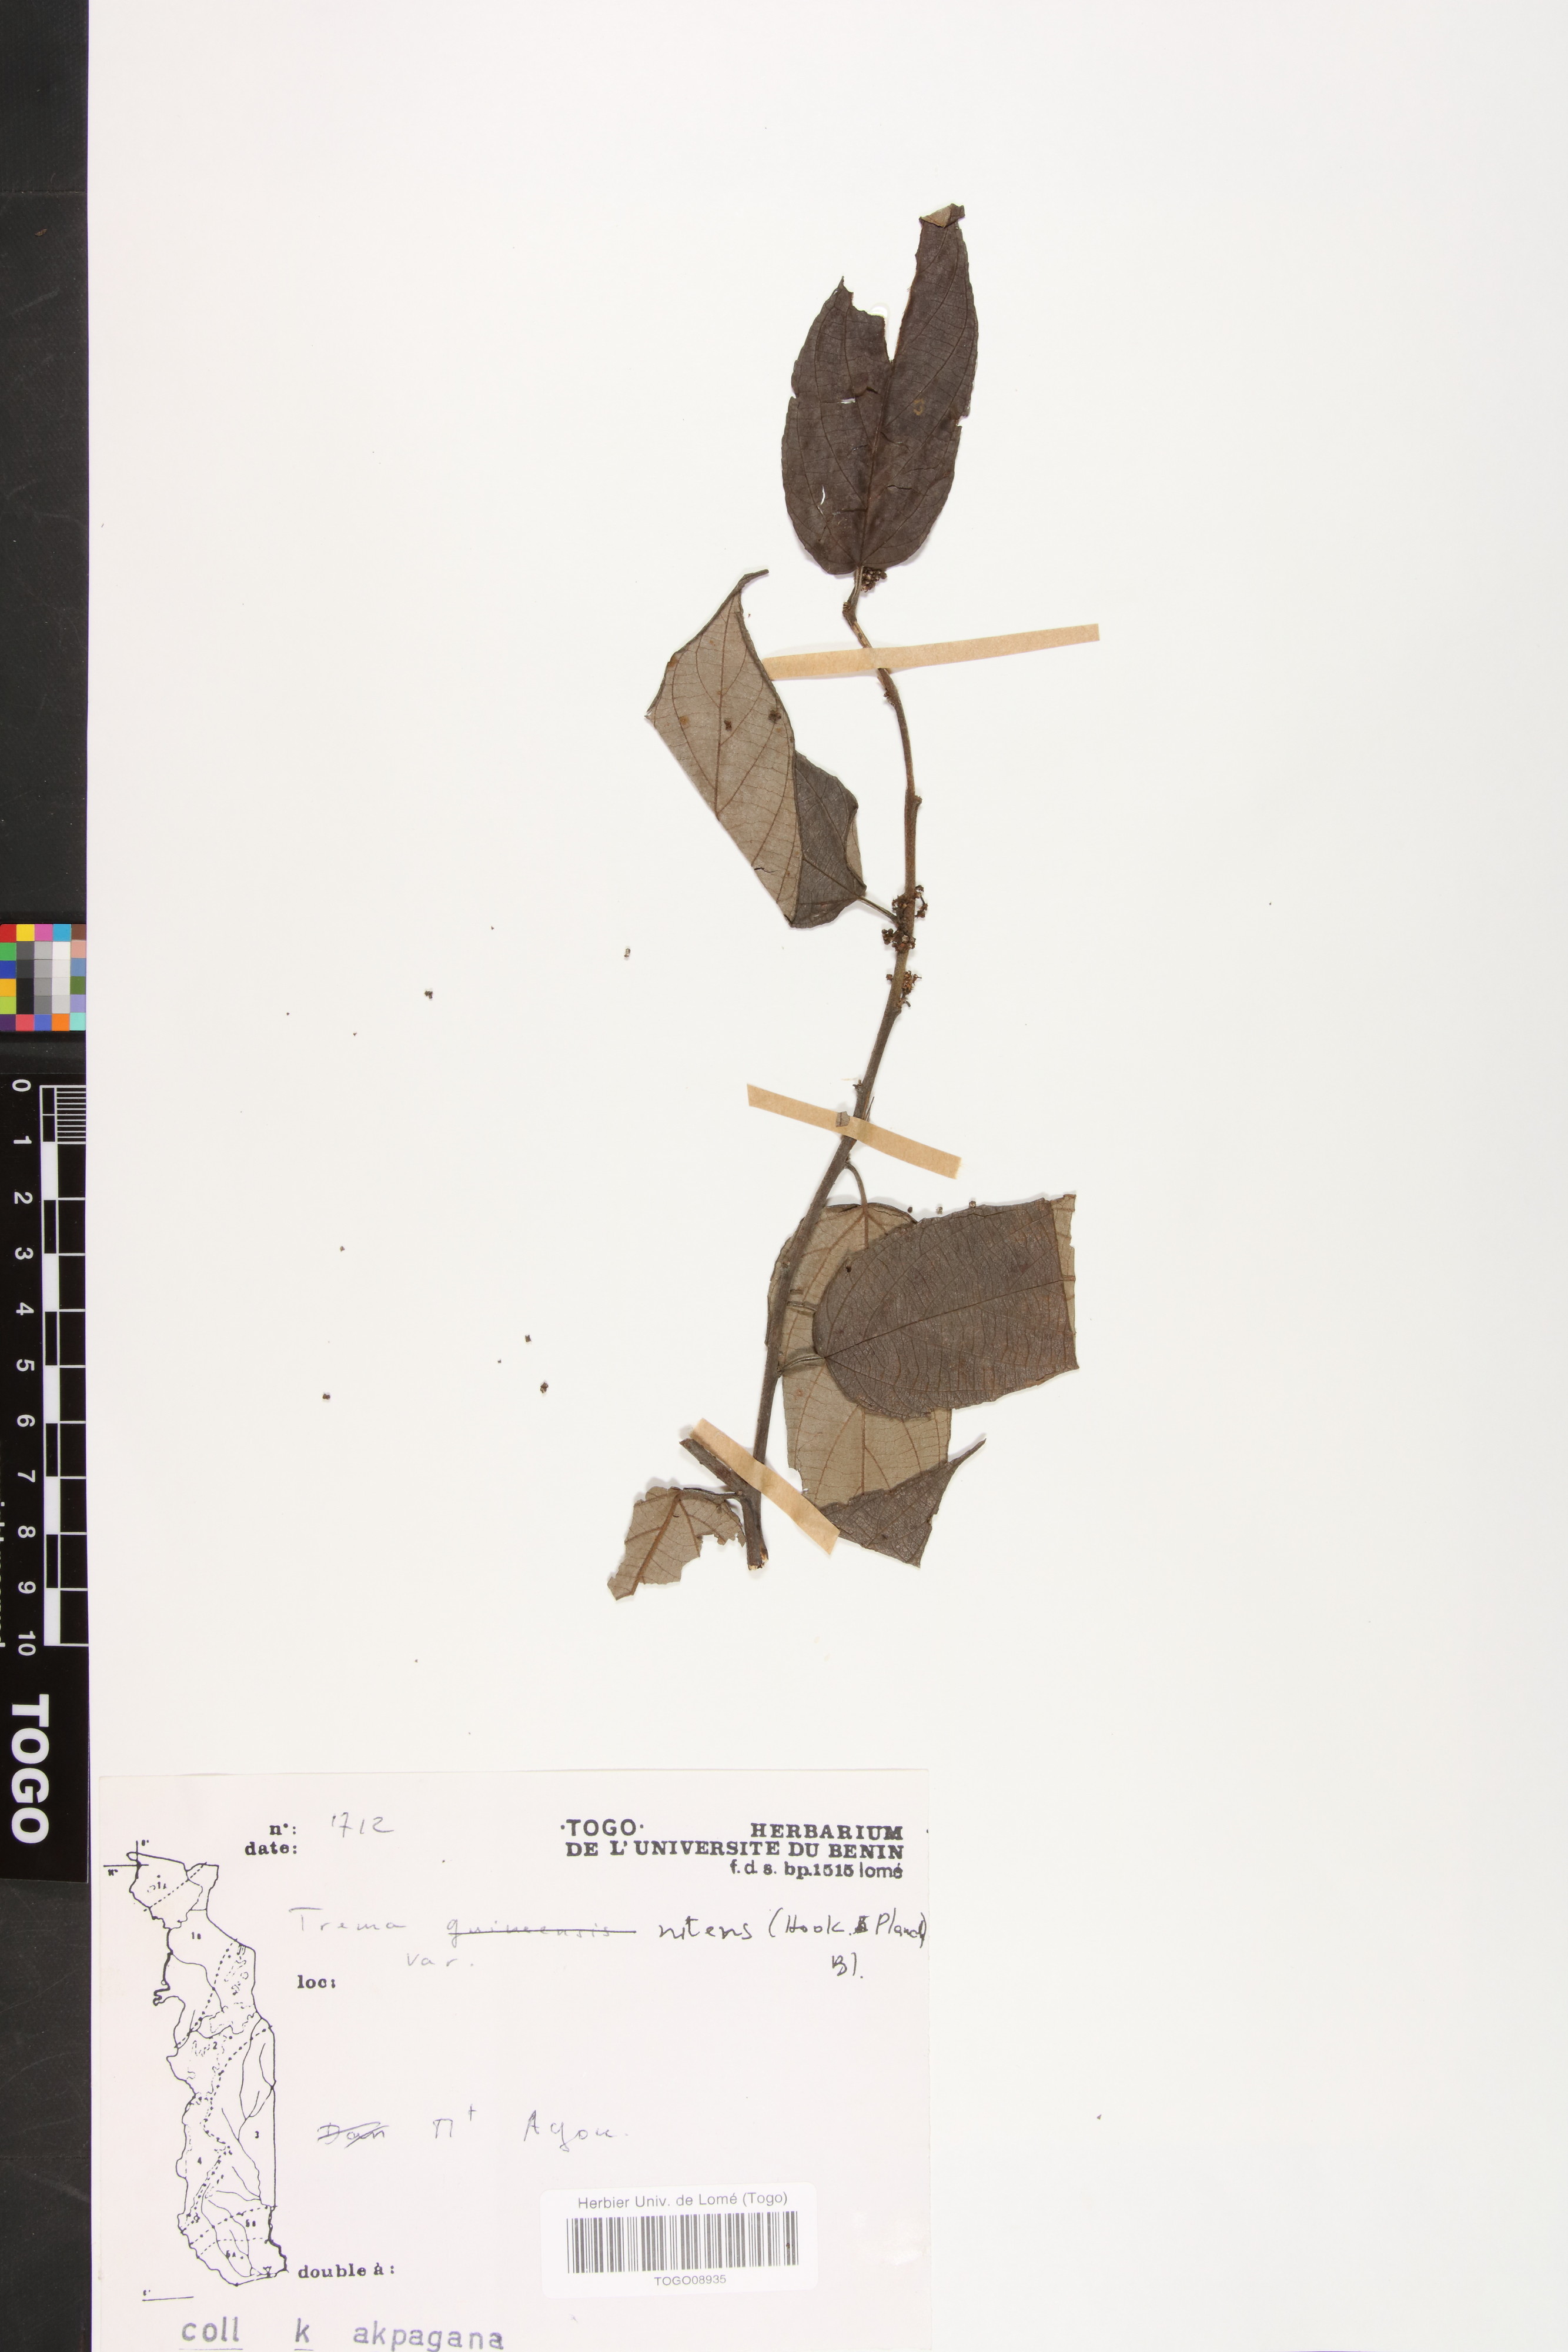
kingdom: Plantae
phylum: Tracheophyta
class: Magnoliopsida
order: Rosales
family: Cannabaceae
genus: Trema
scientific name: Trema orientale
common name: Indian charcoal tree
